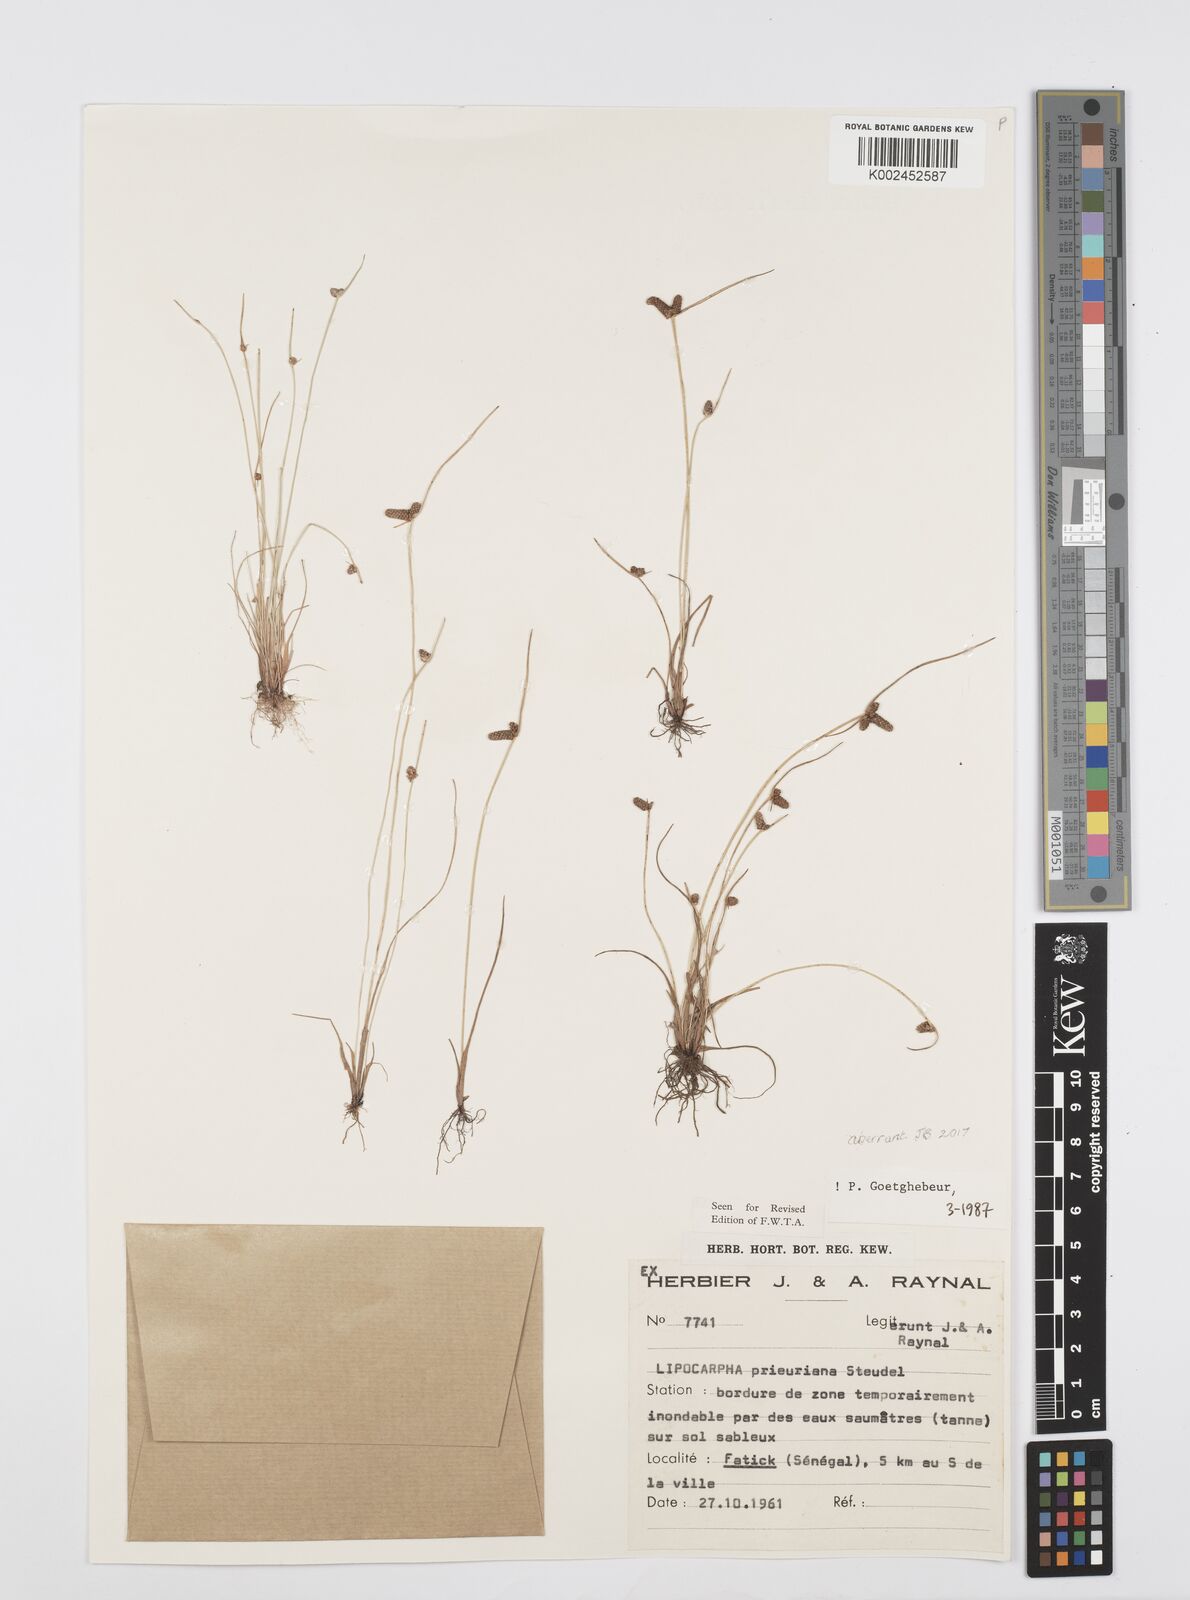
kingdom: Plantae
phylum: Tracheophyta
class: Liliopsida
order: Poales
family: Cyperaceae
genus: Cyperus
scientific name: Cyperus prieurianus
